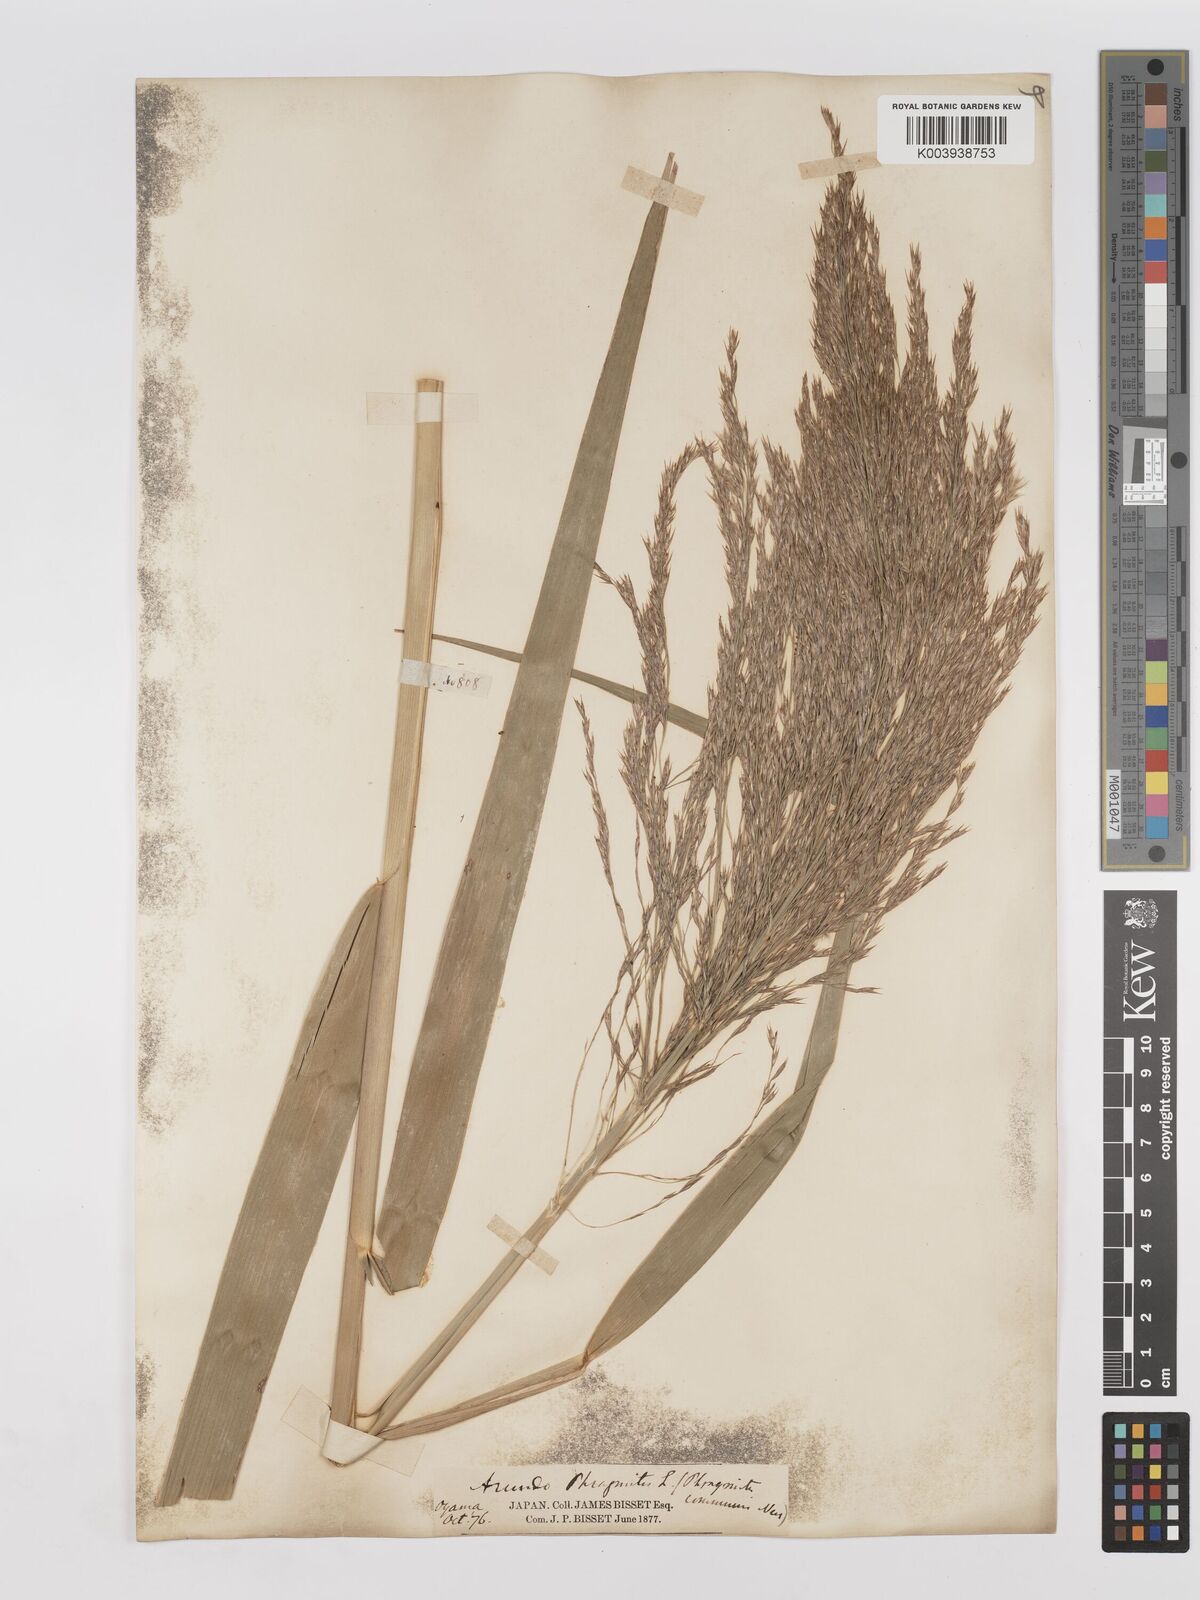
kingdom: Plantae
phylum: Tracheophyta
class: Liliopsida
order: Poales
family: Poaceae
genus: Phragmites
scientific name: Phragmites karka
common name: Tropical reed
